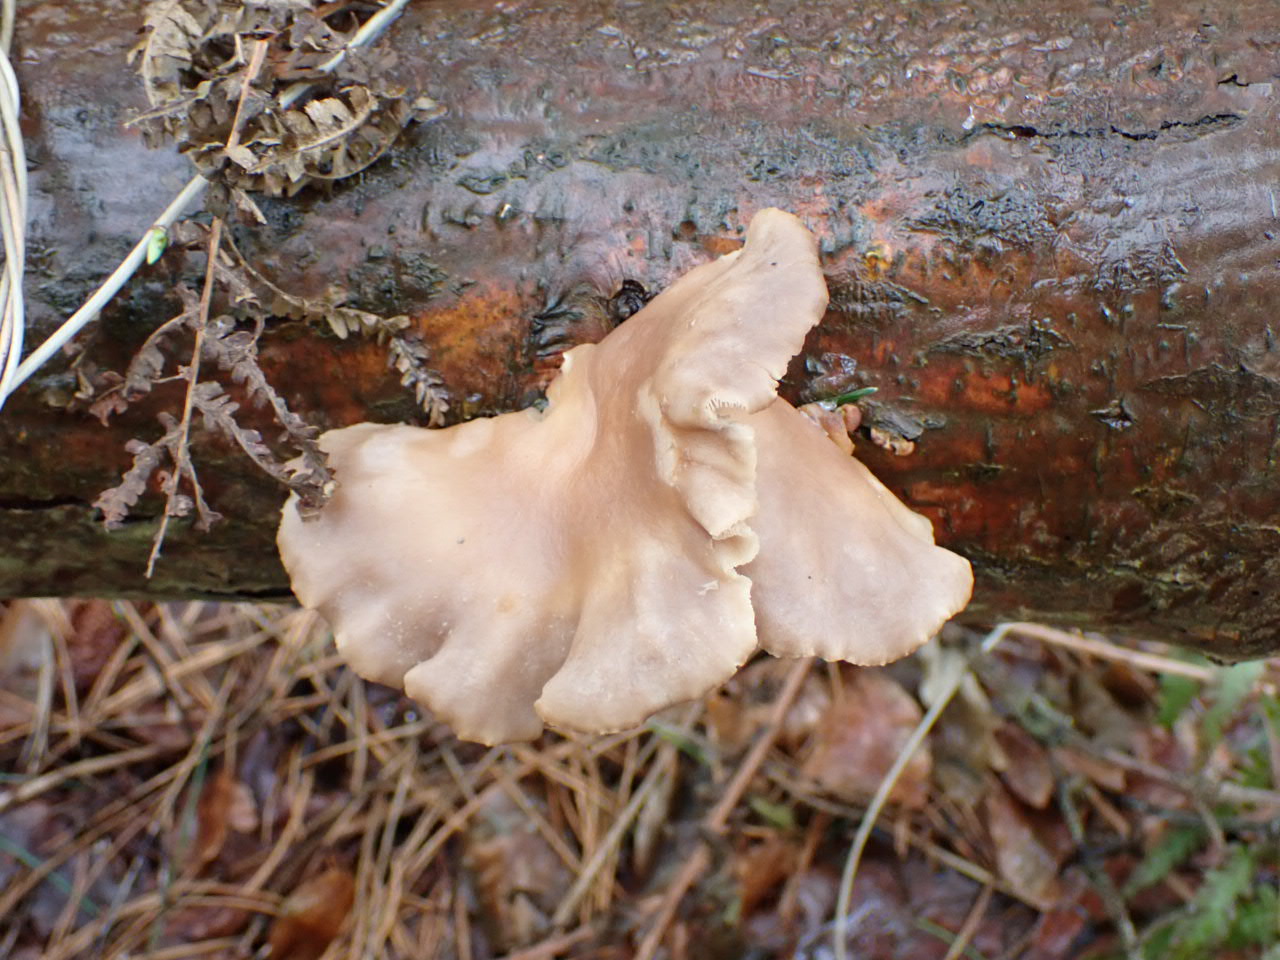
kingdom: Fungi
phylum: Basidiomycota
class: Agaricomycetes
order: Agaricales
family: Sarcomyxaceae
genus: Sarcomyxa
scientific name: Sarcomyxa serotina
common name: gummihat
